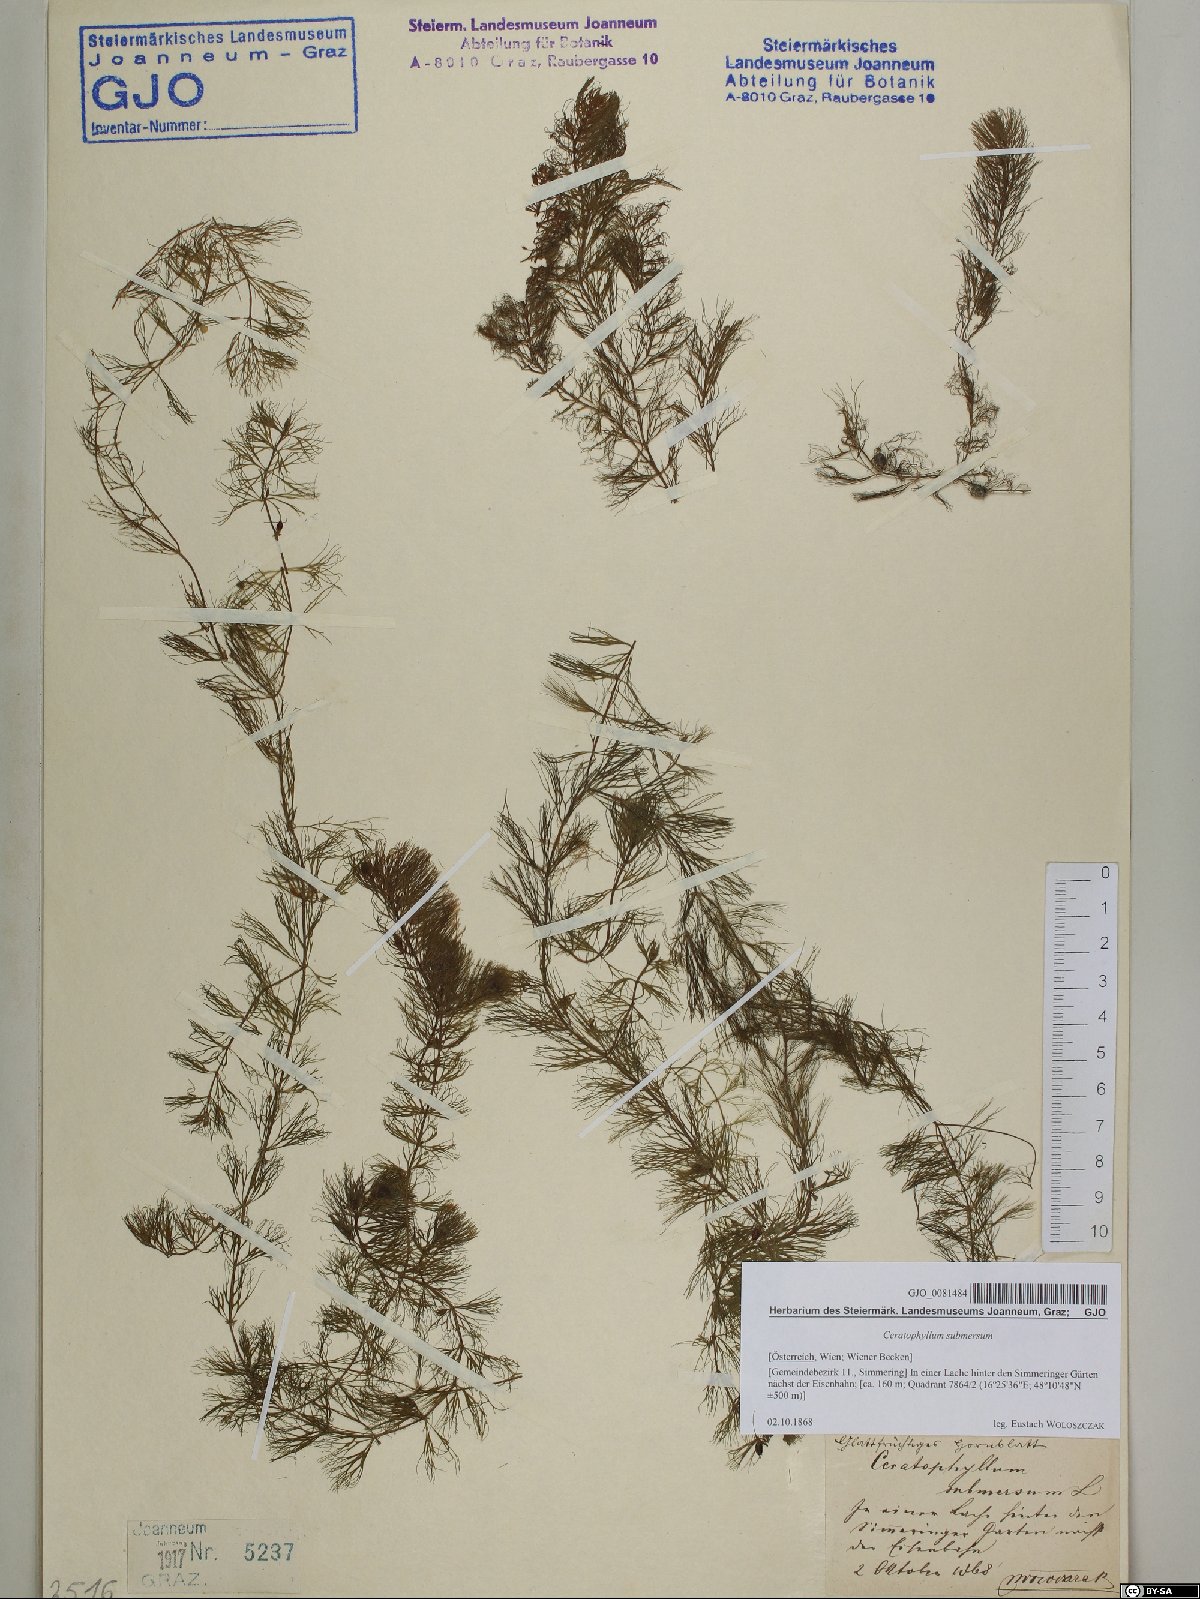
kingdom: Plantae
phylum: Tracheophyta
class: Magnoliopsida
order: Ceratophyllales
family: Ceratophyllaceae
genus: Ceratophyllum
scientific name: Ceratophyllum submersum
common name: Soft hornwort
